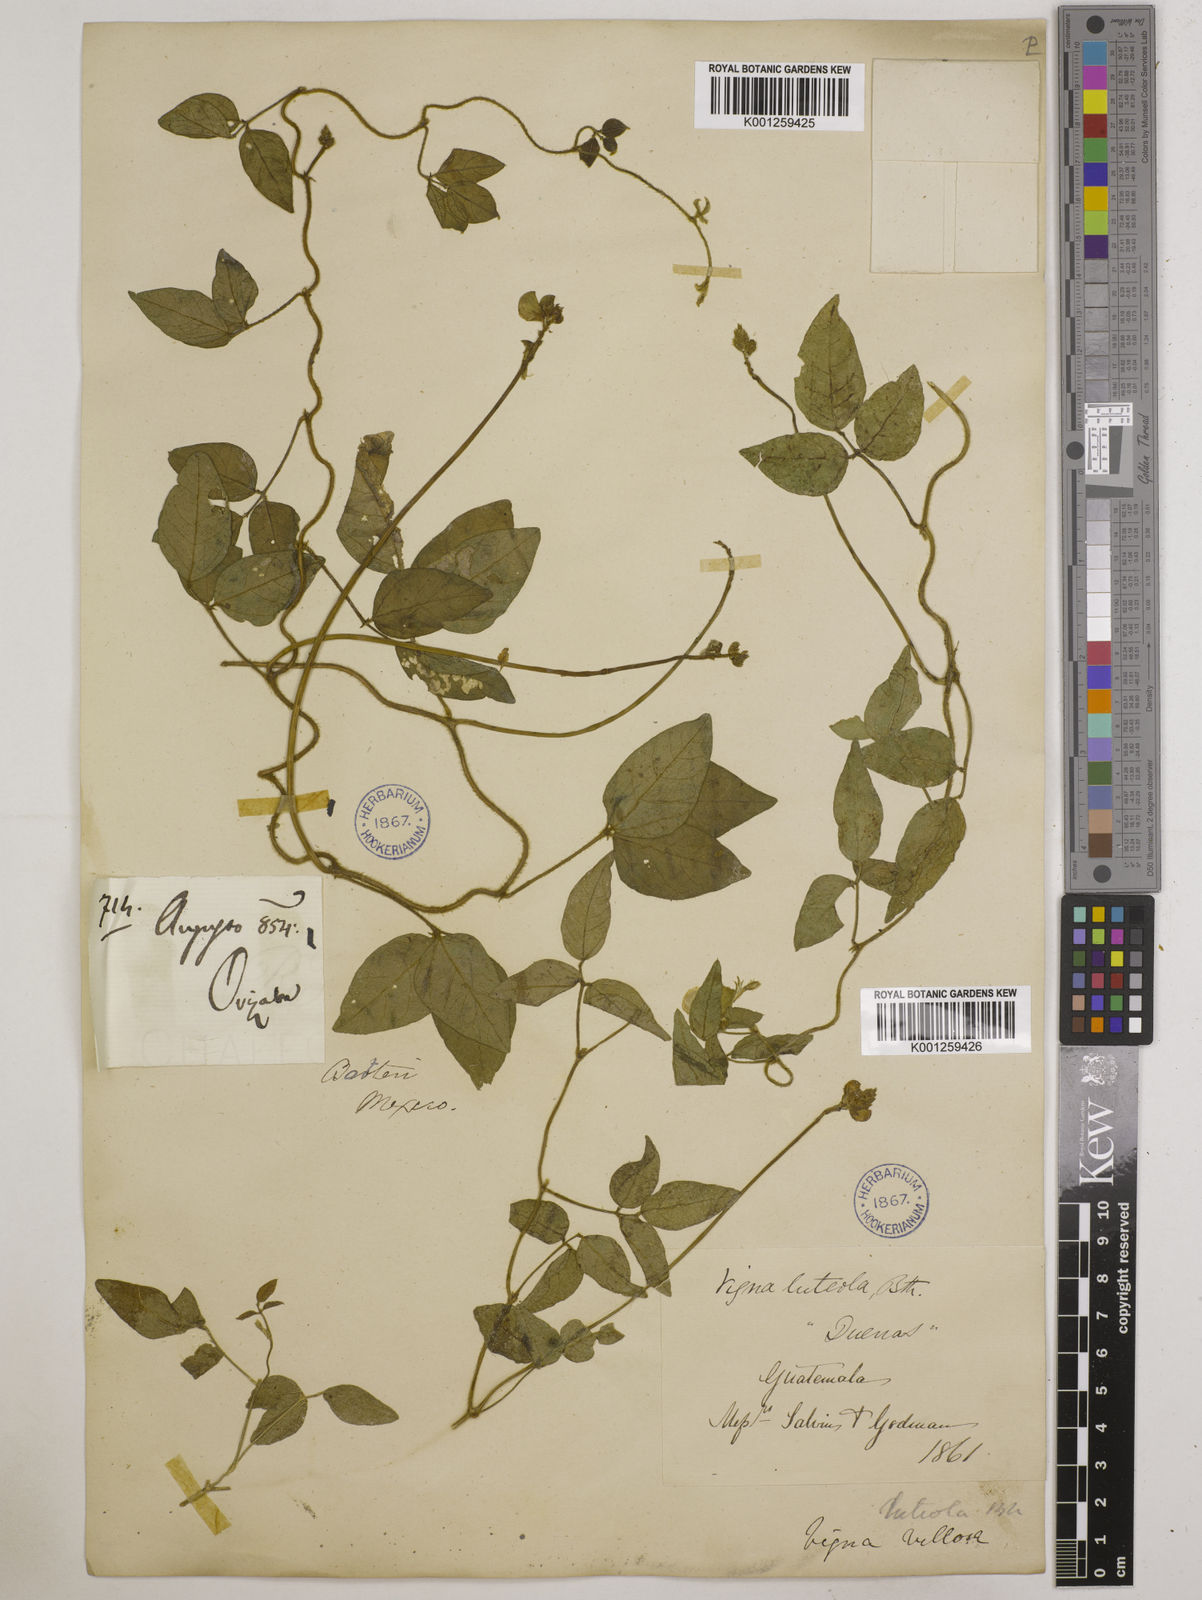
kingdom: Plantae
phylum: Tracheophyta
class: Magnoliopsida
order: Fabales
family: Fabaceae
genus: Vigna
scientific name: Vigna luteola
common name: Hairypod cowpea
